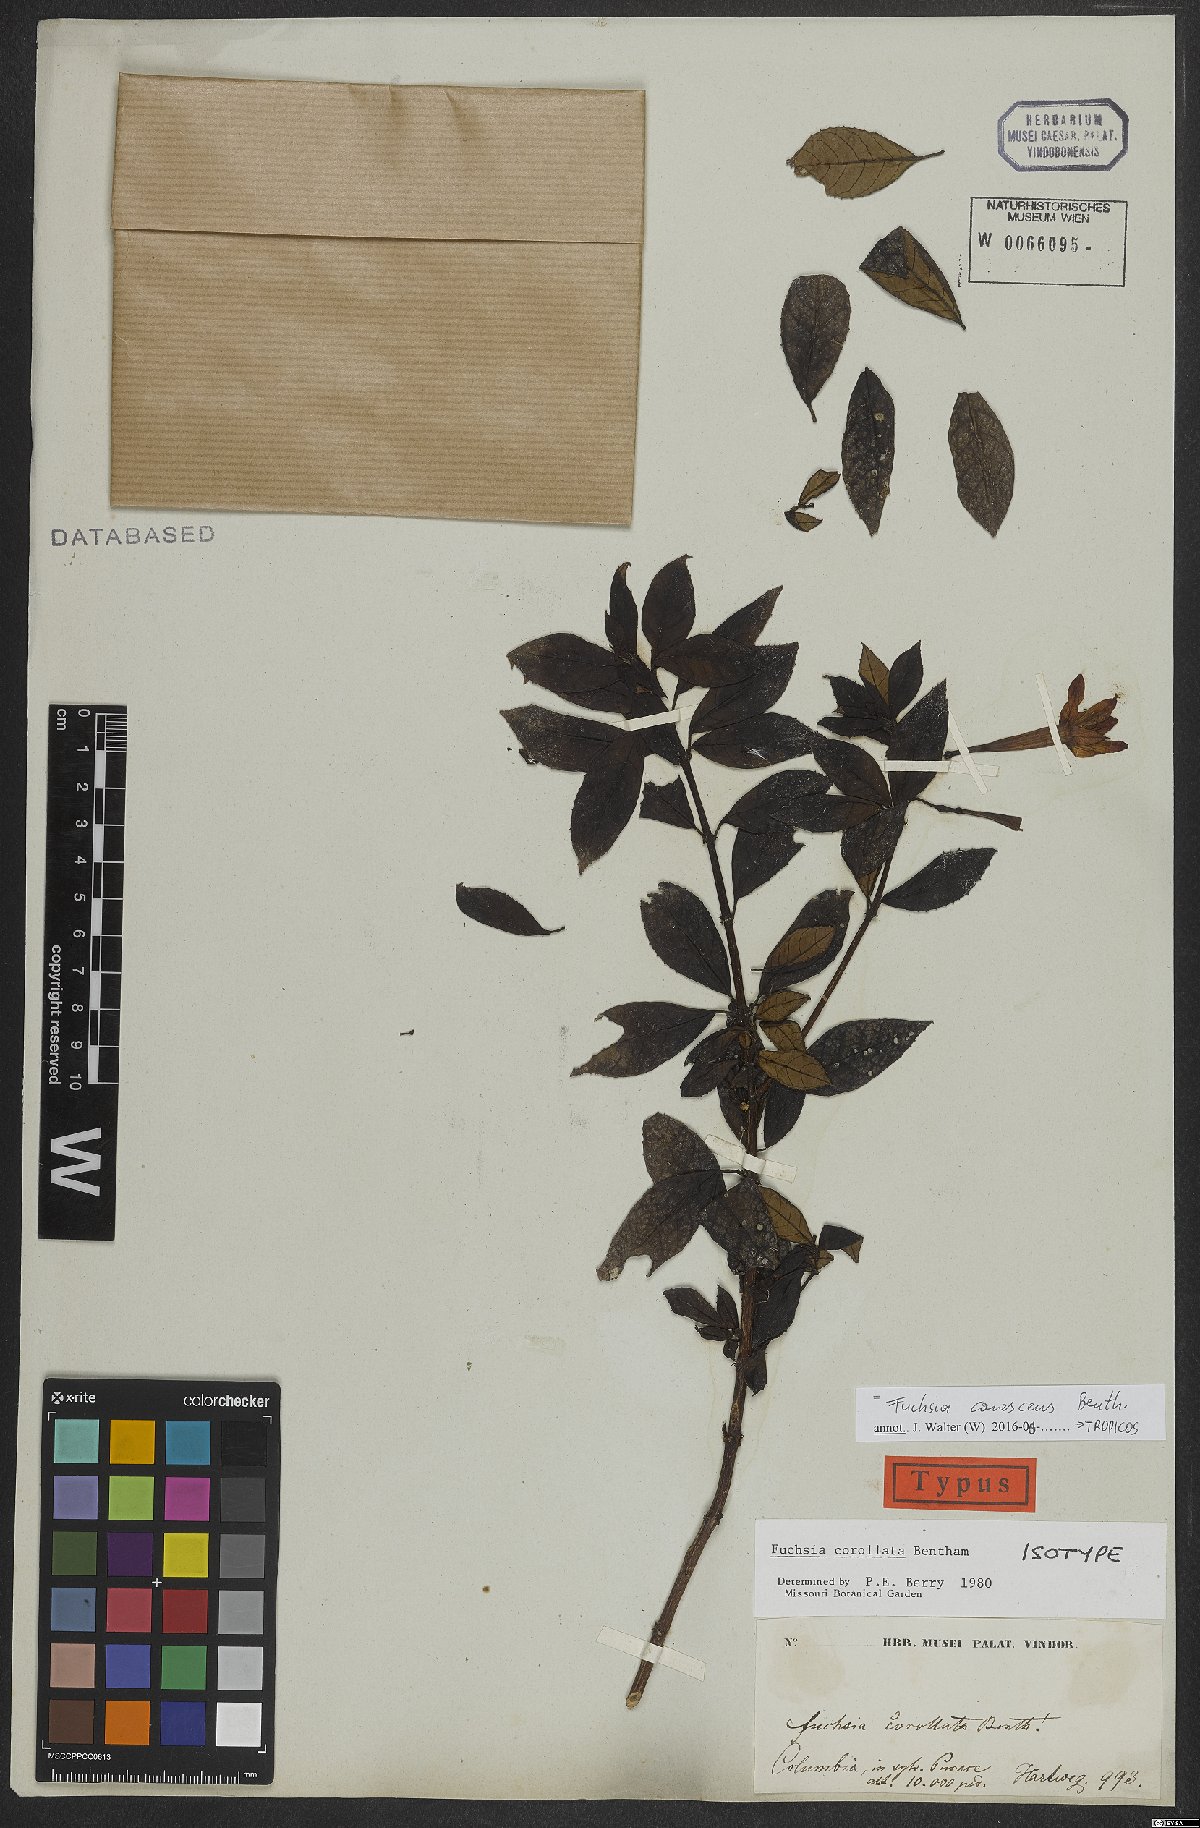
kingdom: Plantae
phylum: Tracheophyta
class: Magnoliopsida
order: Myrtales
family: Onagraceae
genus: Fuchsia
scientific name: Fuchsia canescens
